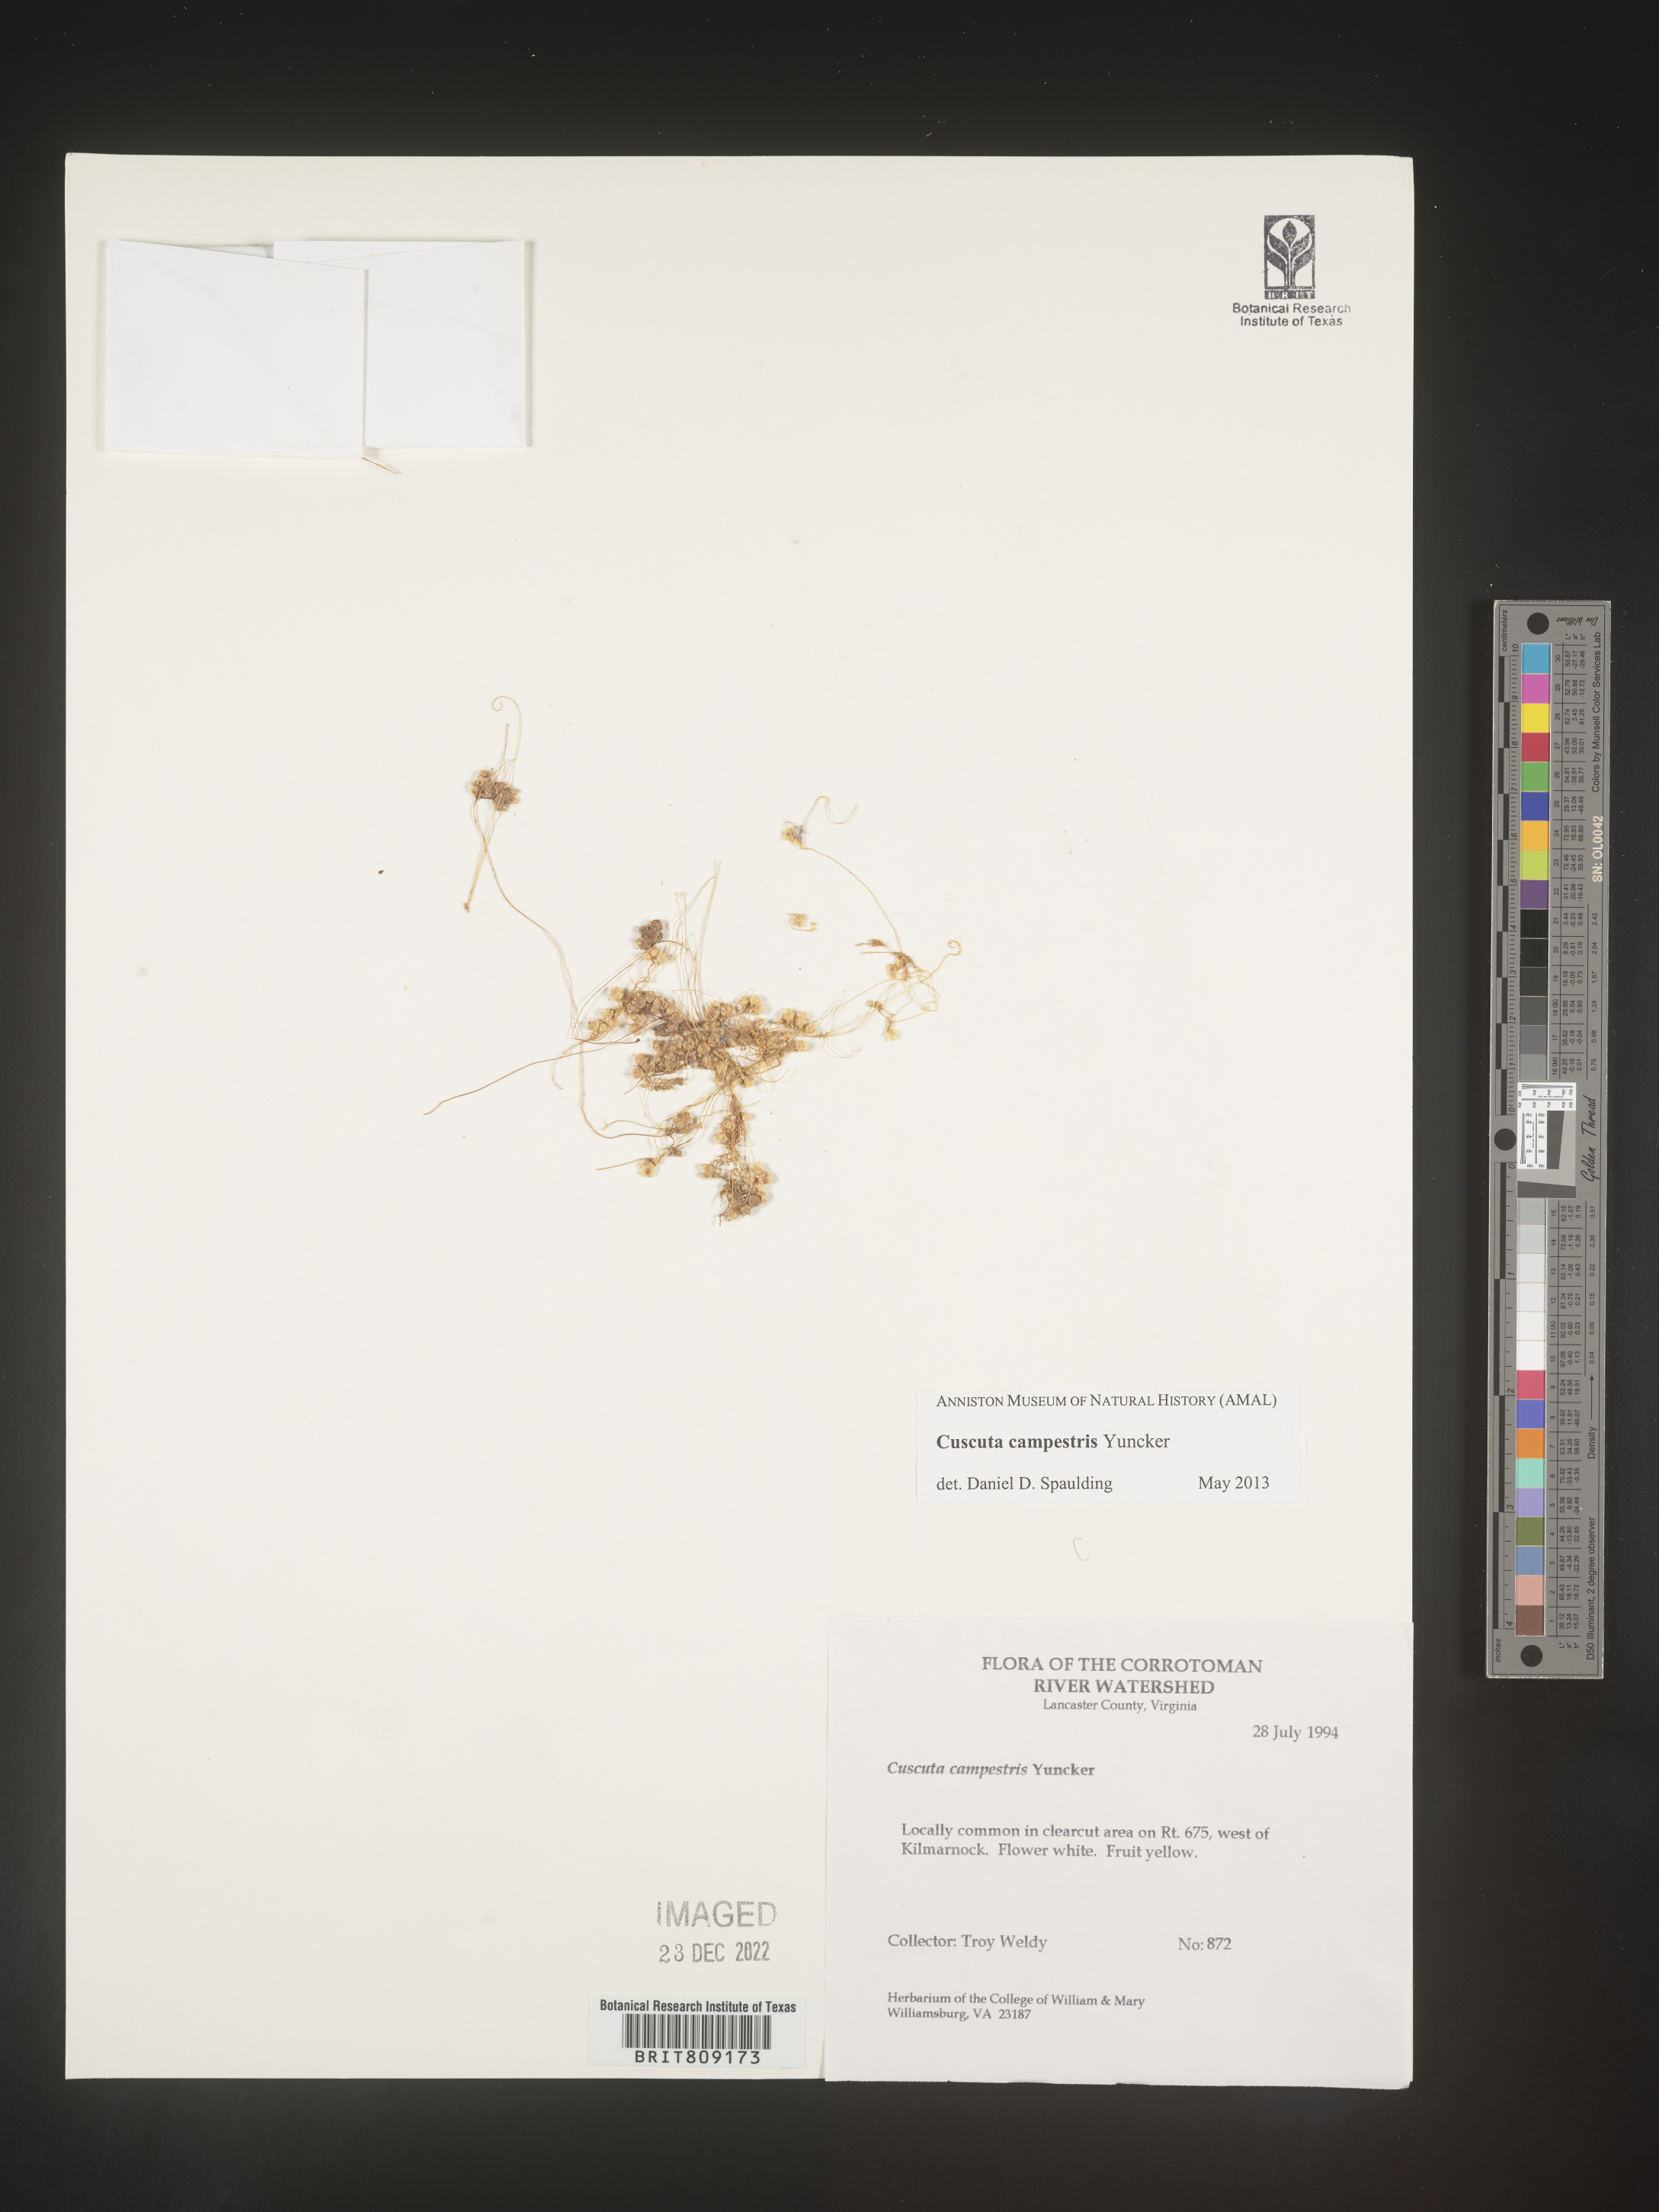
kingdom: Plantae
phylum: Tracheophyta
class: Magnoliopsida
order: Solanales
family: Convolvulaceae
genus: Cuscuta
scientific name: Cuscuta campestris
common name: Yellow dodder
